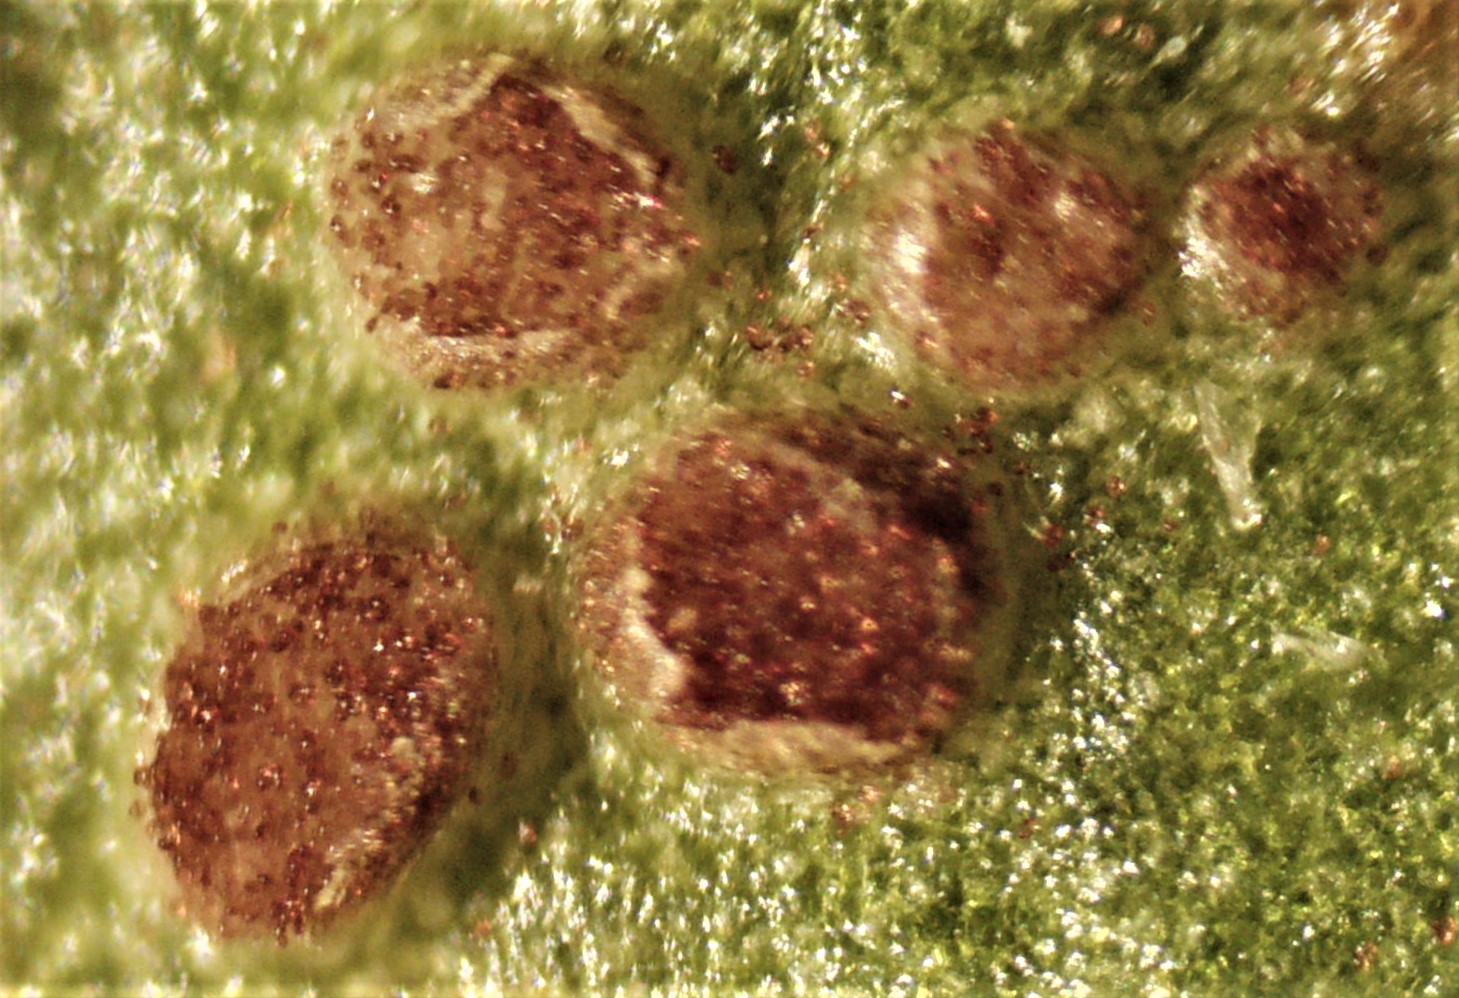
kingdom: Fungi
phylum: Basidiomycota
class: Pucciniomycetes
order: Pucciniales
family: Pucciniaceae
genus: Puccinia
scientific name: Puccinia vincae
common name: Periwinkle rust
